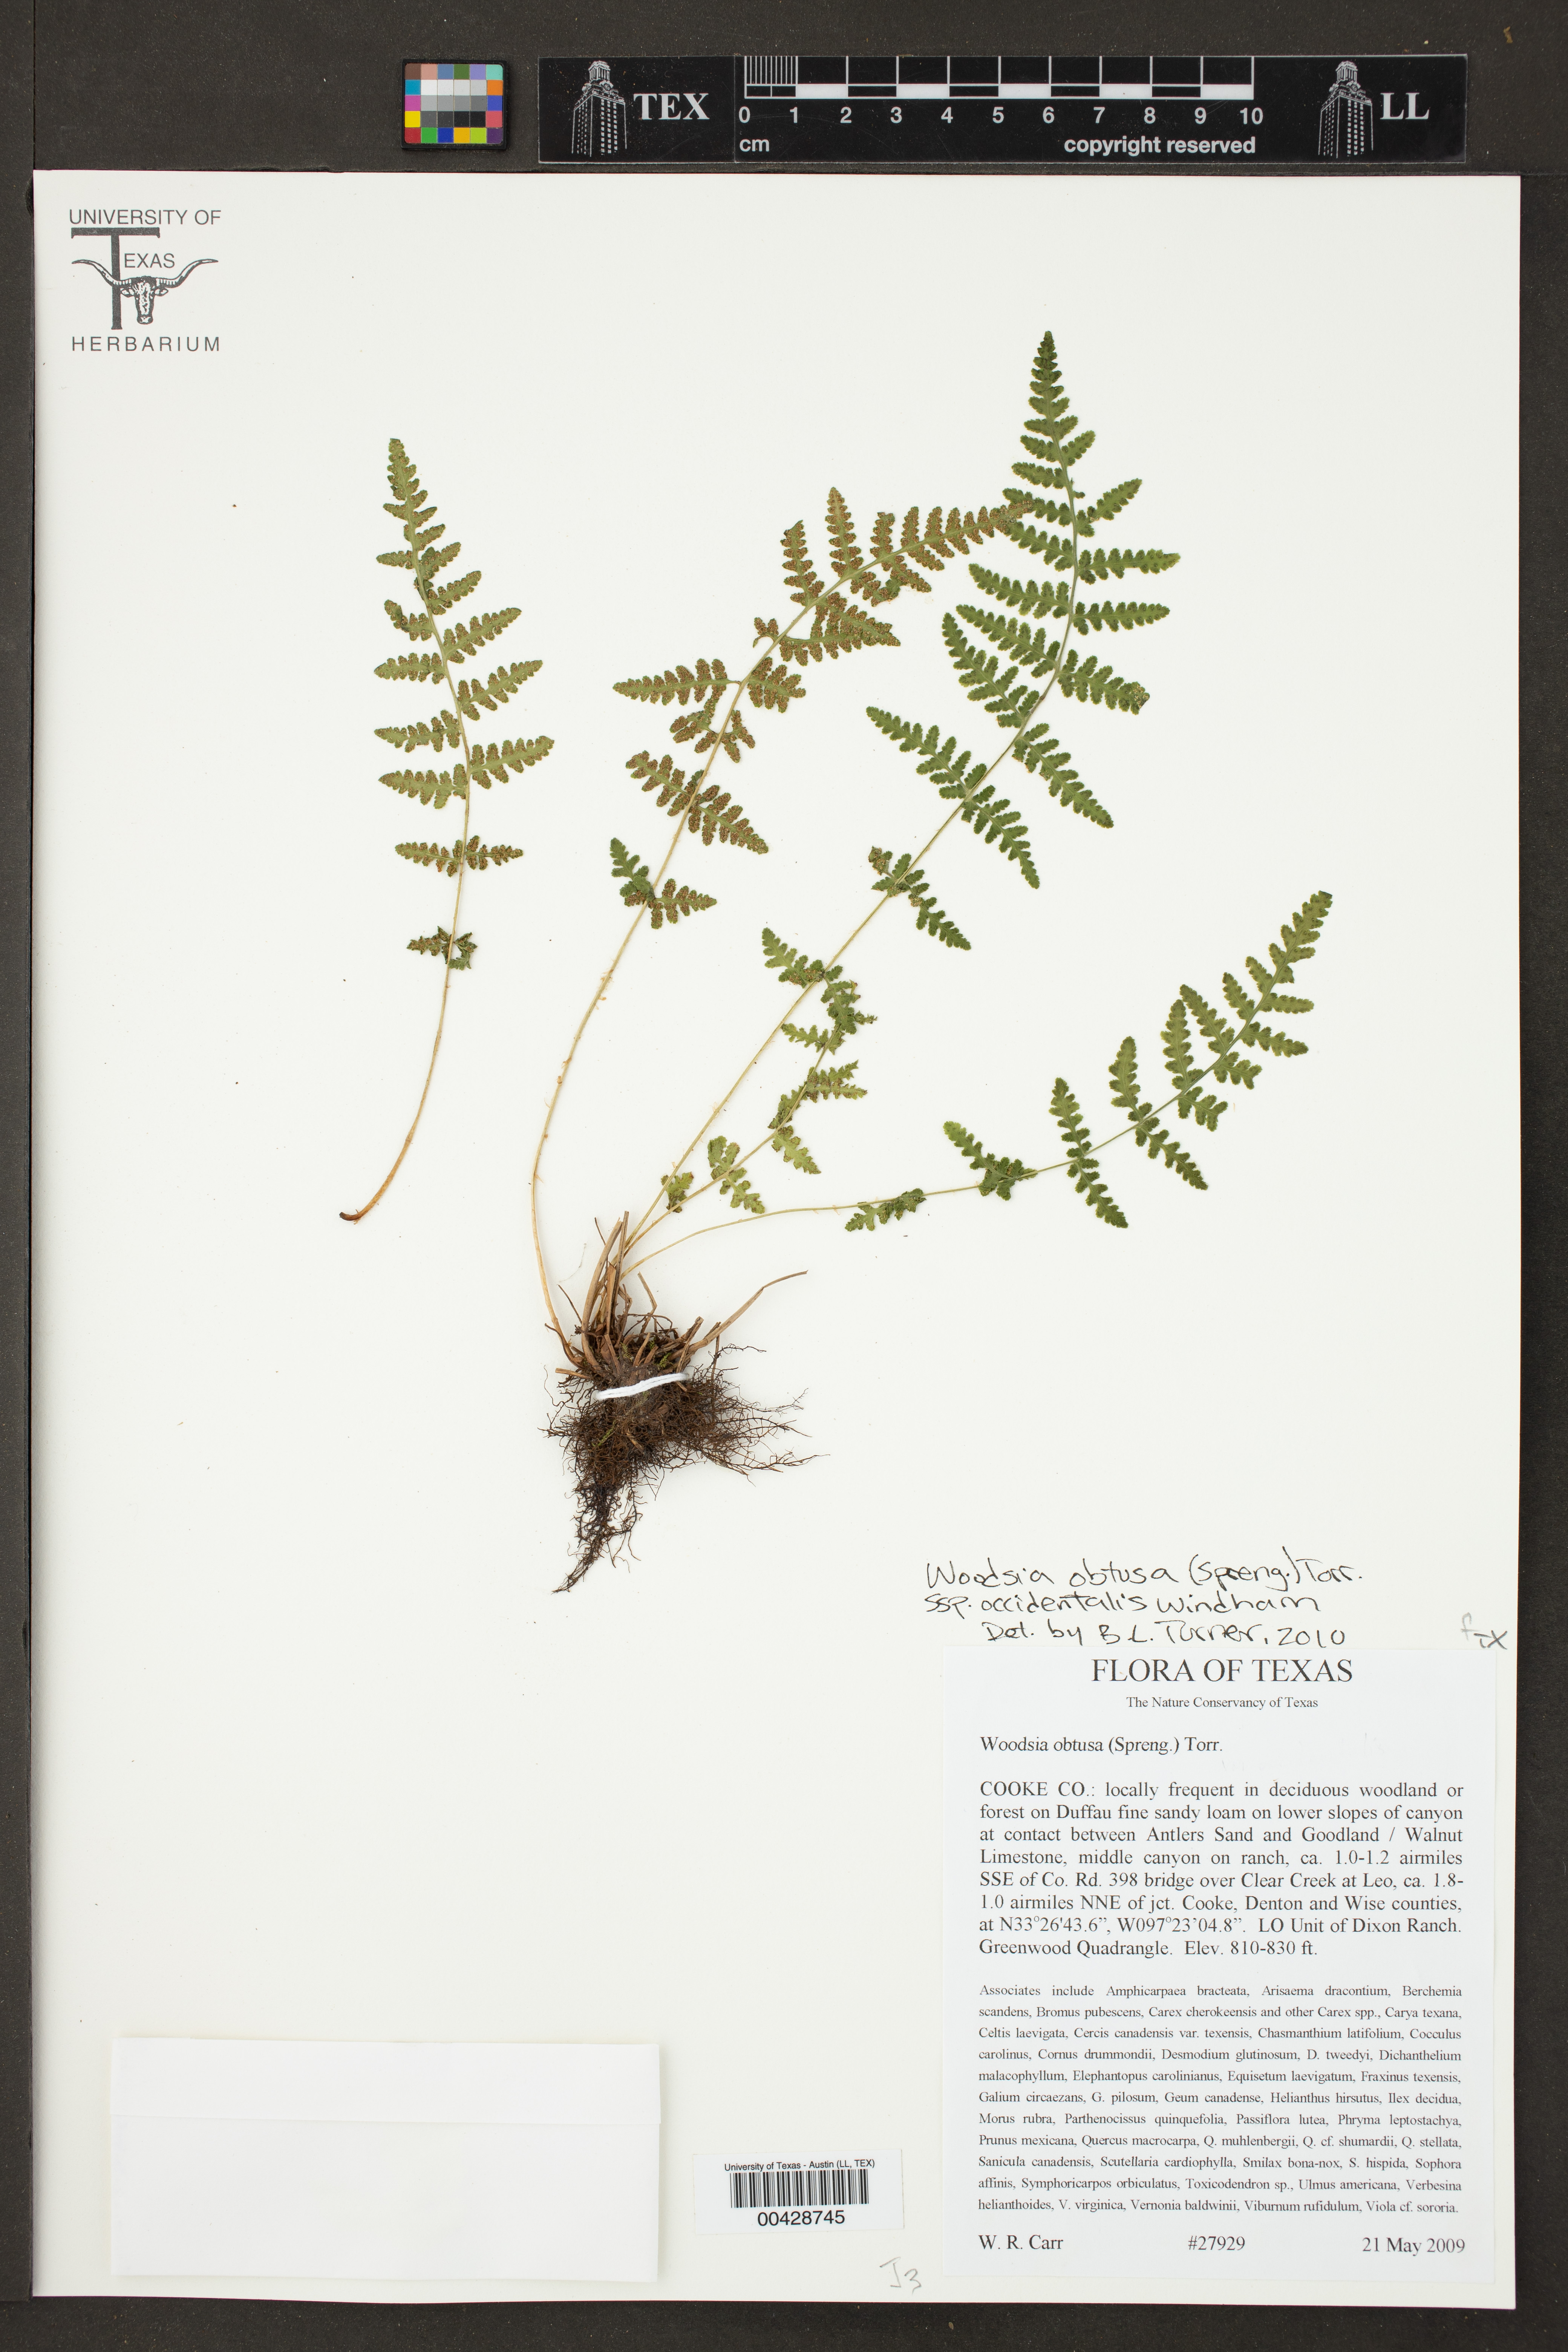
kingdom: Plantae
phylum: Tracheophyta
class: Polypodiopsida
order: Polypodiales
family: Woodsiaceae
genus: Physematium
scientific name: Physematium obtusum
